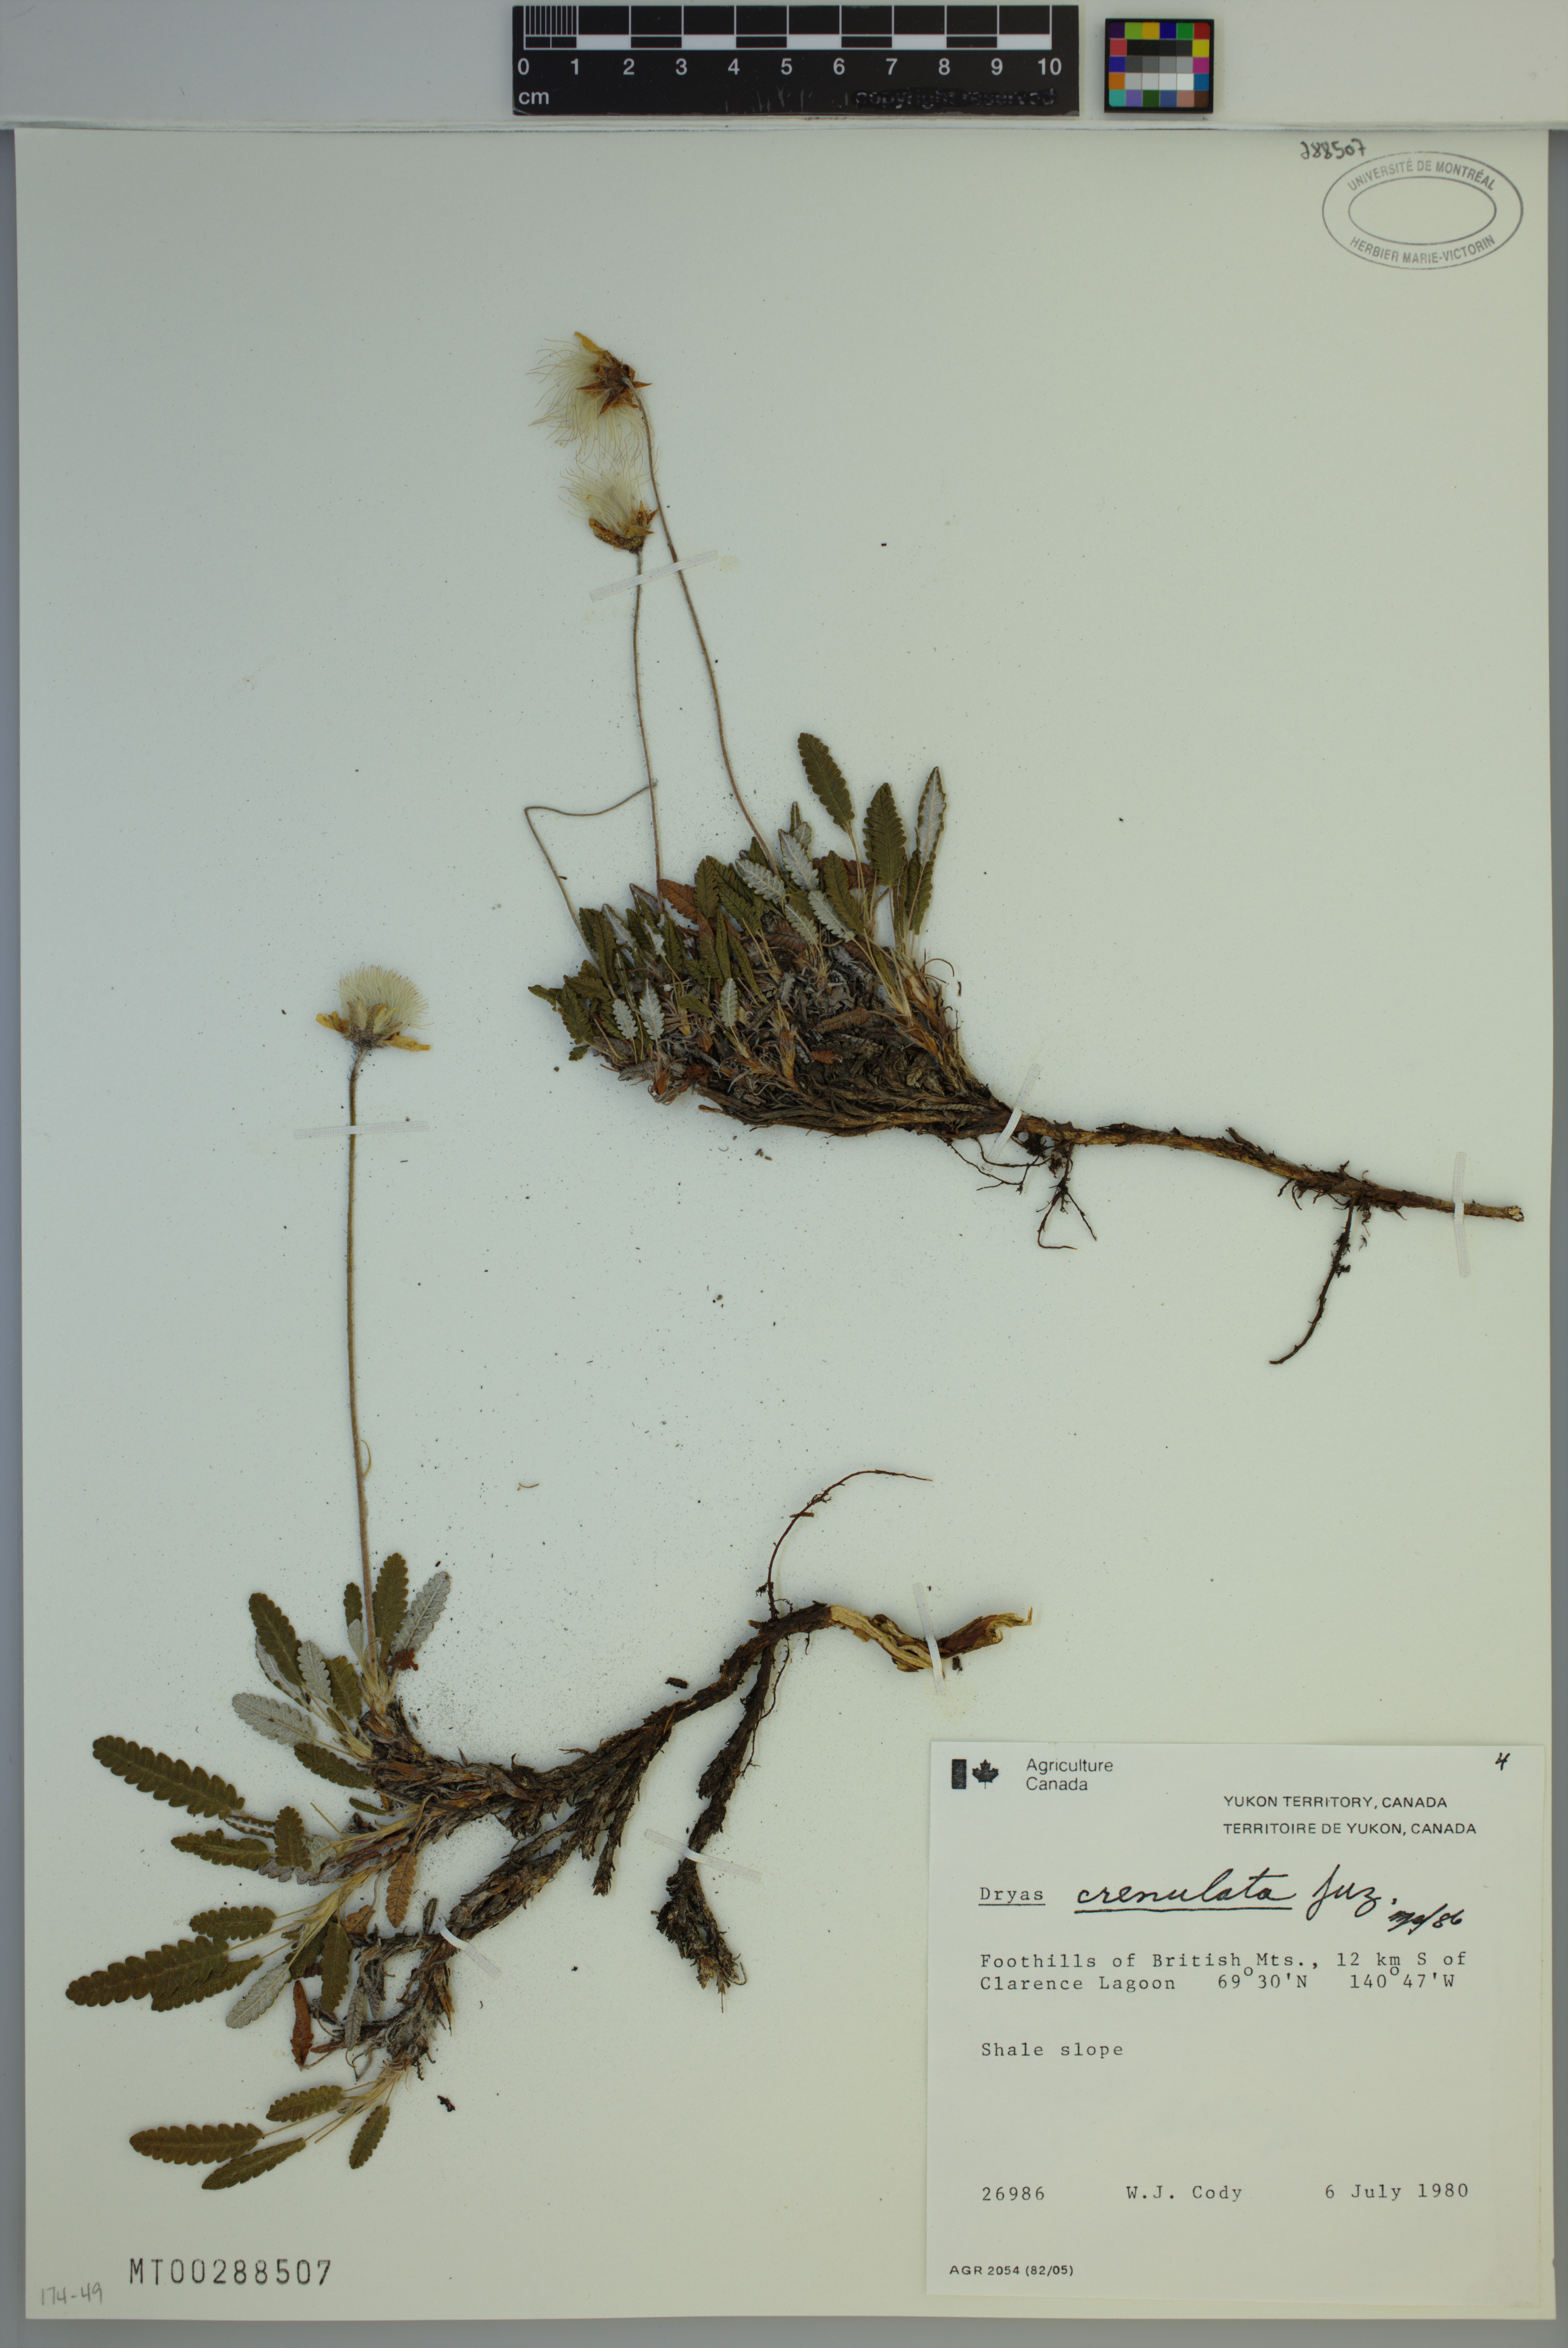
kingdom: Plantae
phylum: Tracheophyta
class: Magnoliopsida
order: Rosales
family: Rosaceae
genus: Dryas
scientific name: Dryas octopetala
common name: Eight-petal mountain-avens
